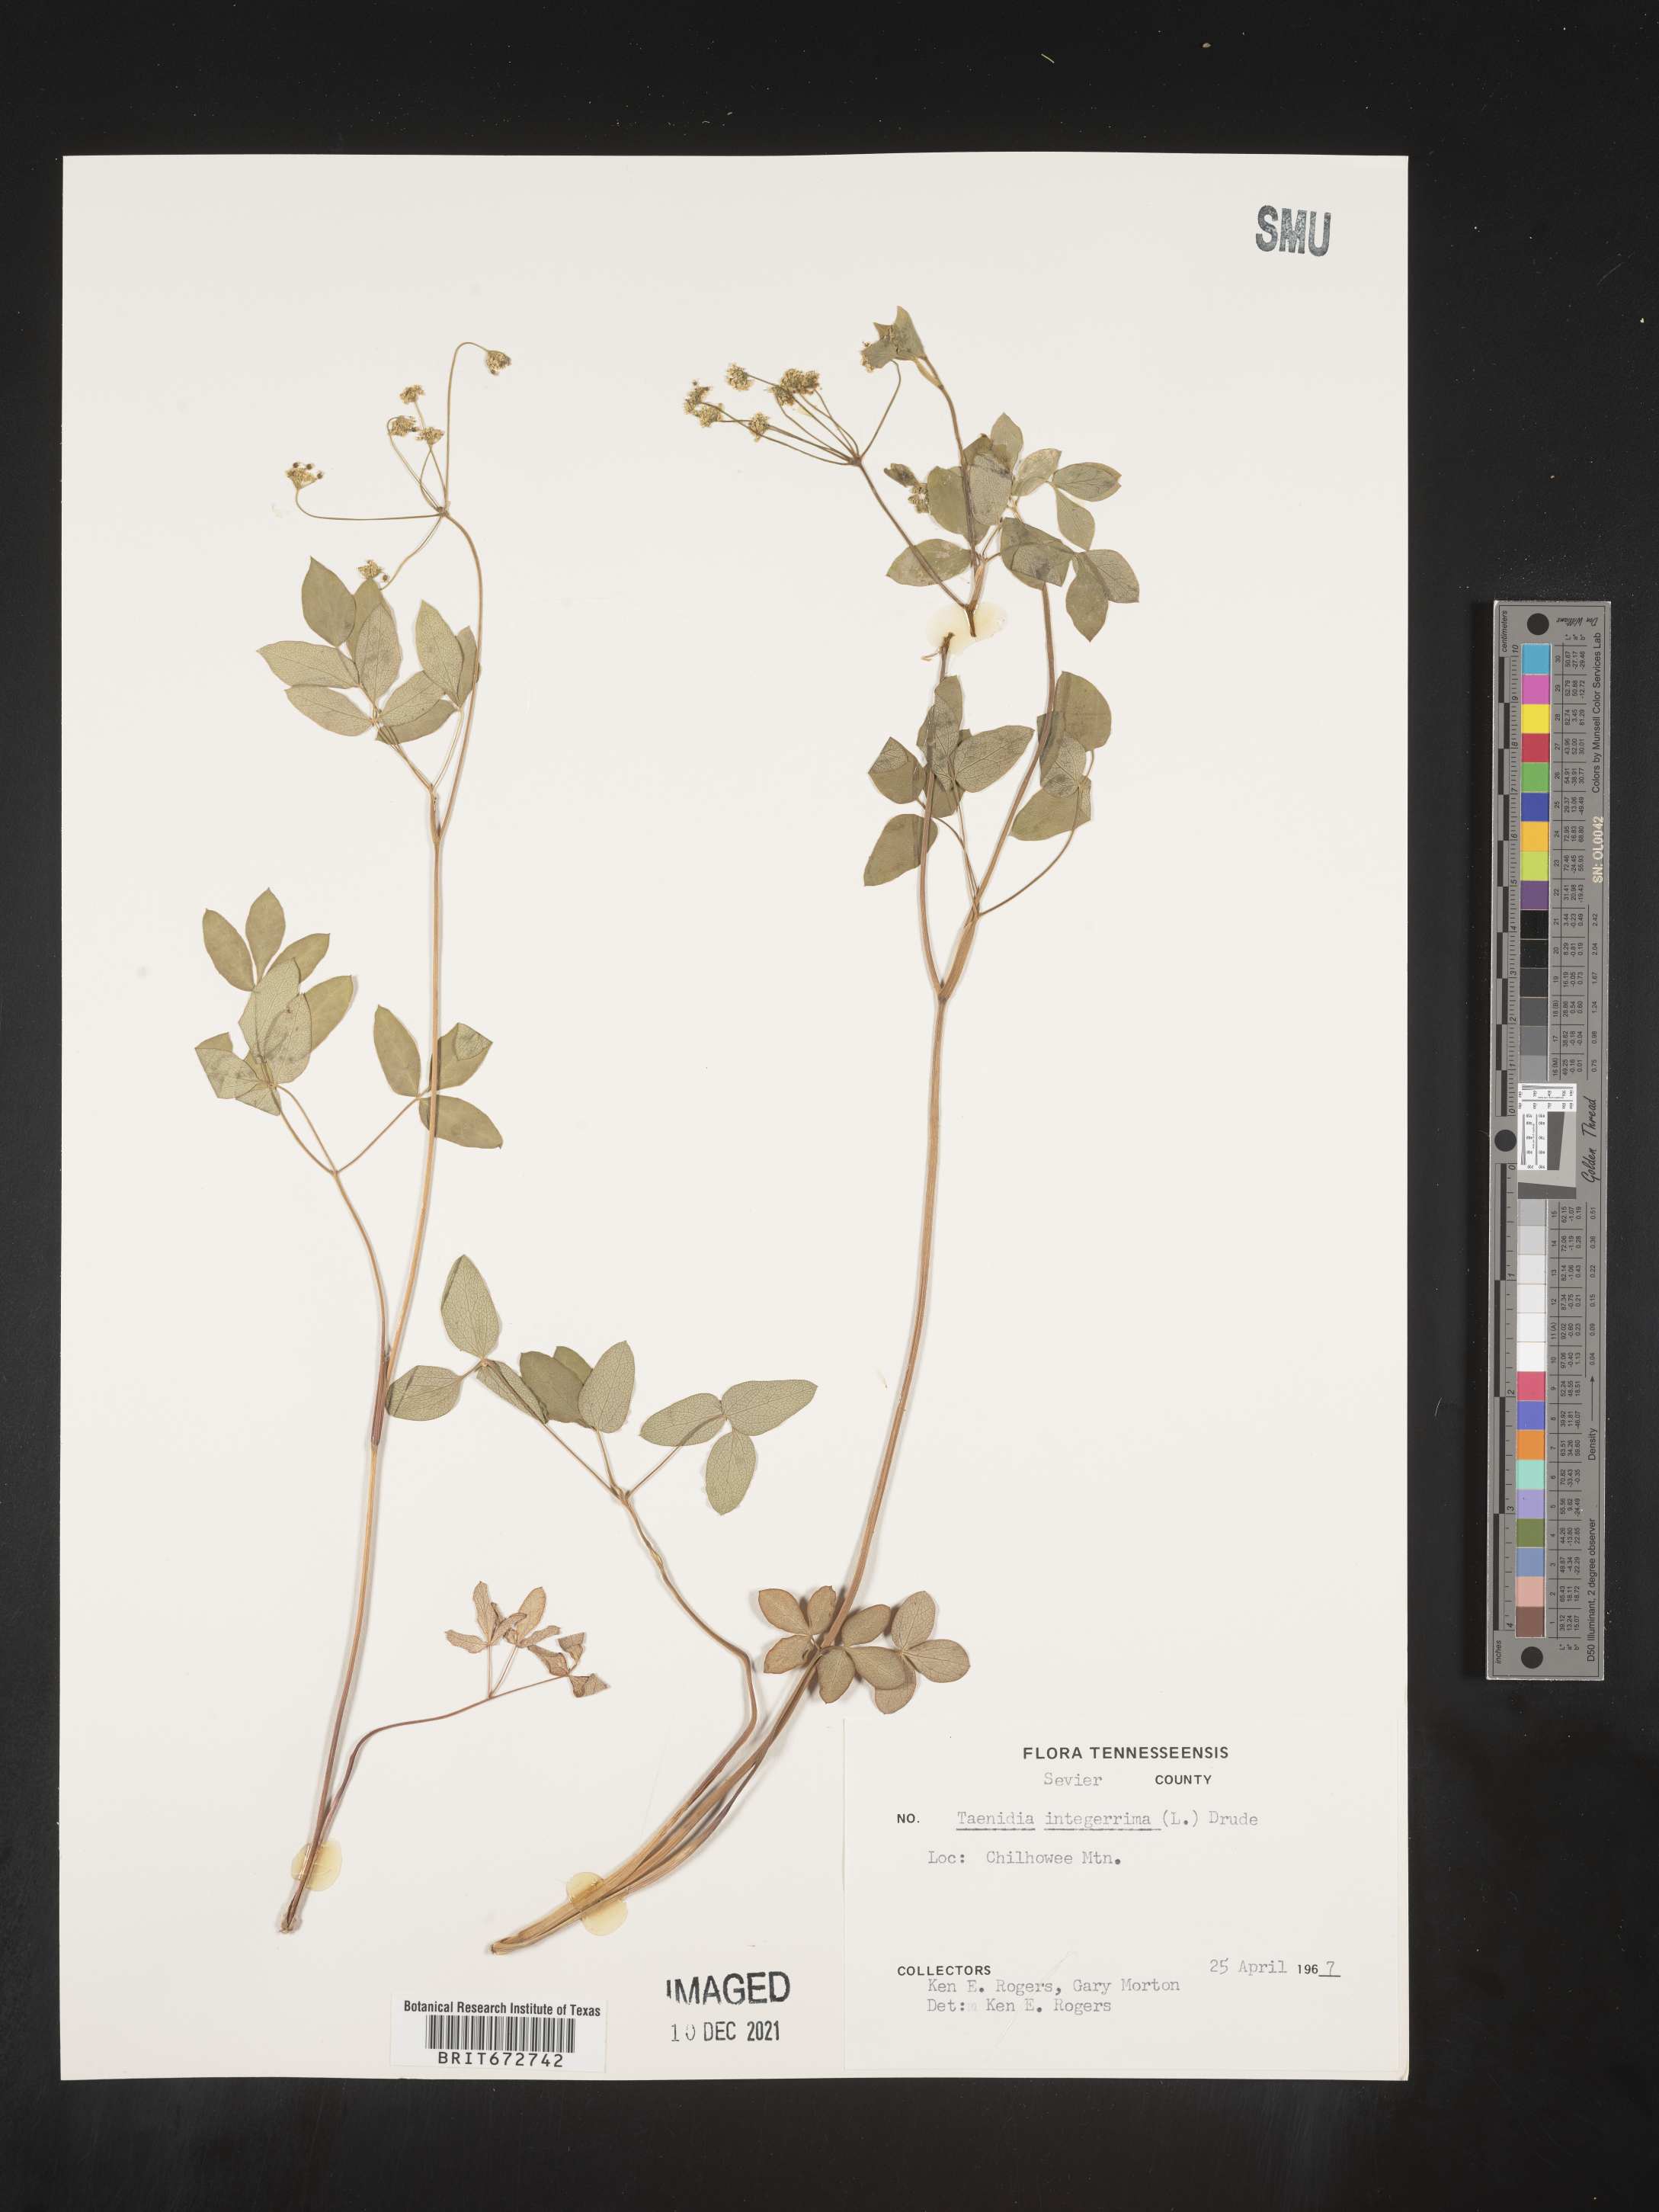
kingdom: Plantae
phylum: Tracheophyta
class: Magnoliopsida
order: Apiales
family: Apiaceae
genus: Taenidia
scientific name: Taenidia
